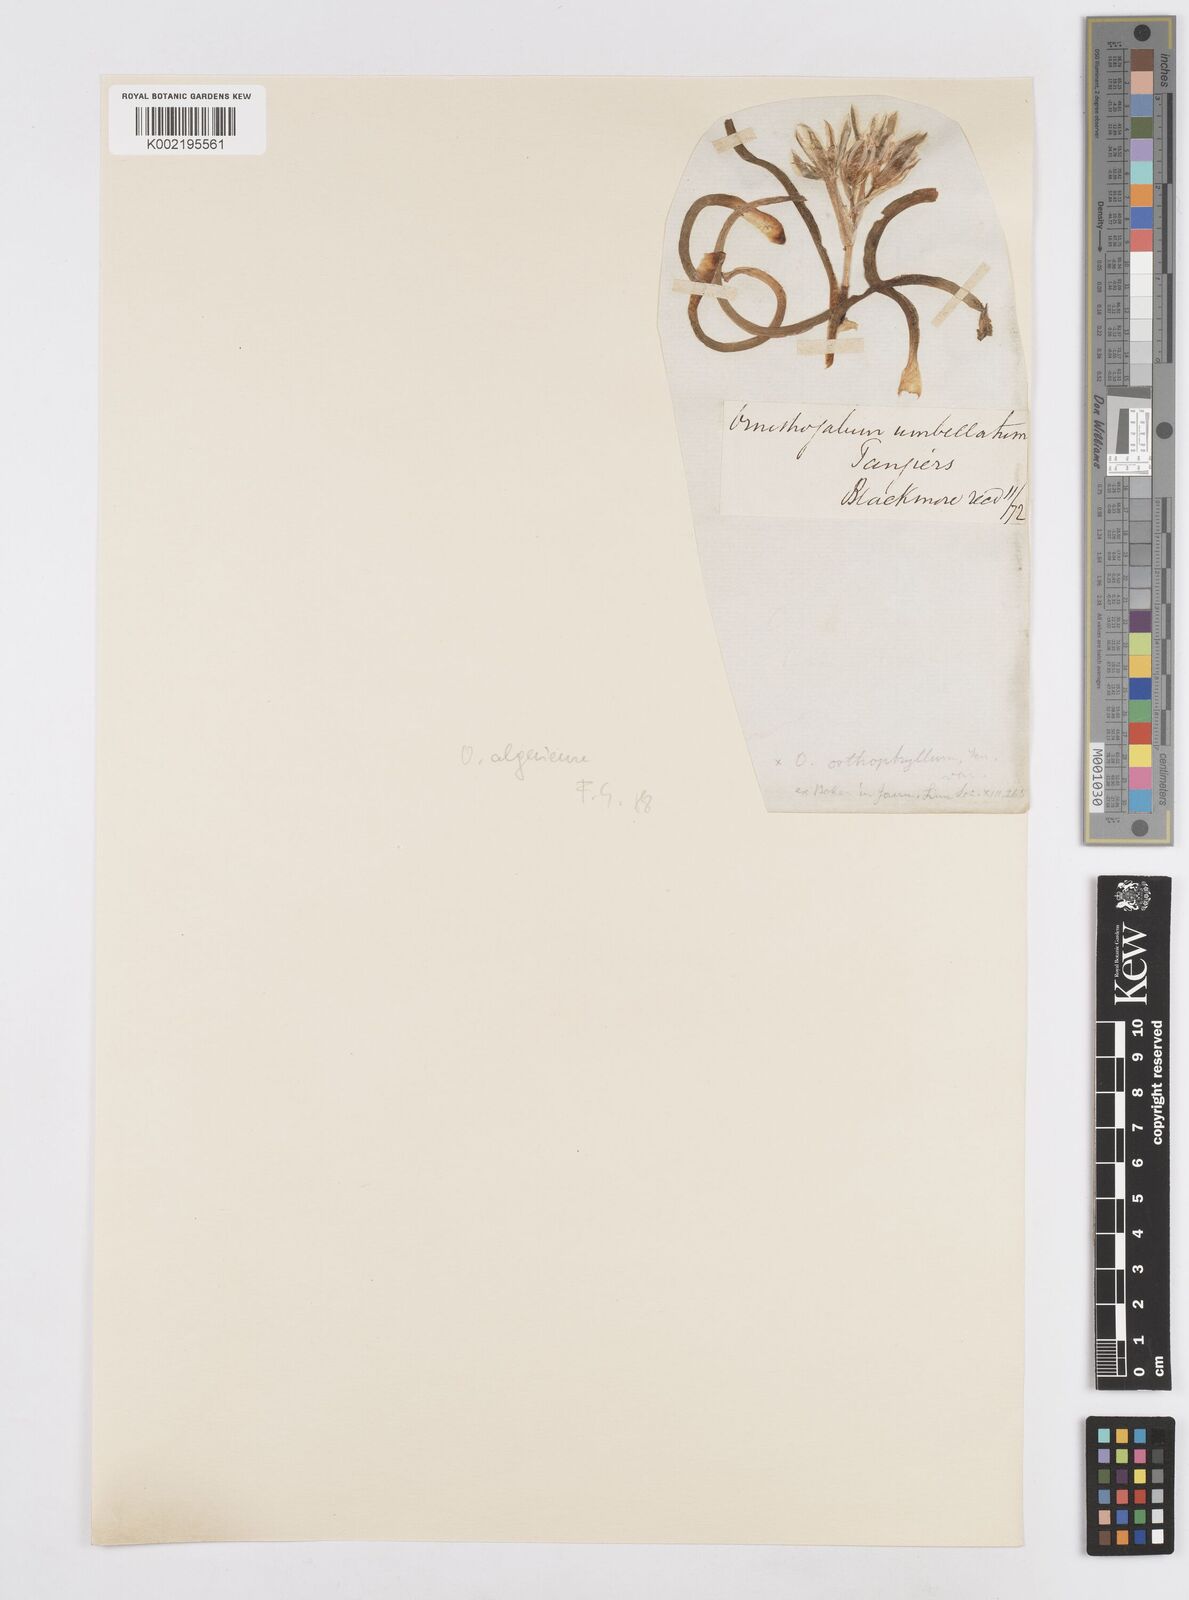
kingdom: Plantae
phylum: Tracheophyta
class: Liliopsida
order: Asparagales
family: Asparagaceae
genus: Ornithogalum
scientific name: Ornithogalum umbellatum
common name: Garden star-of-bethlehem
